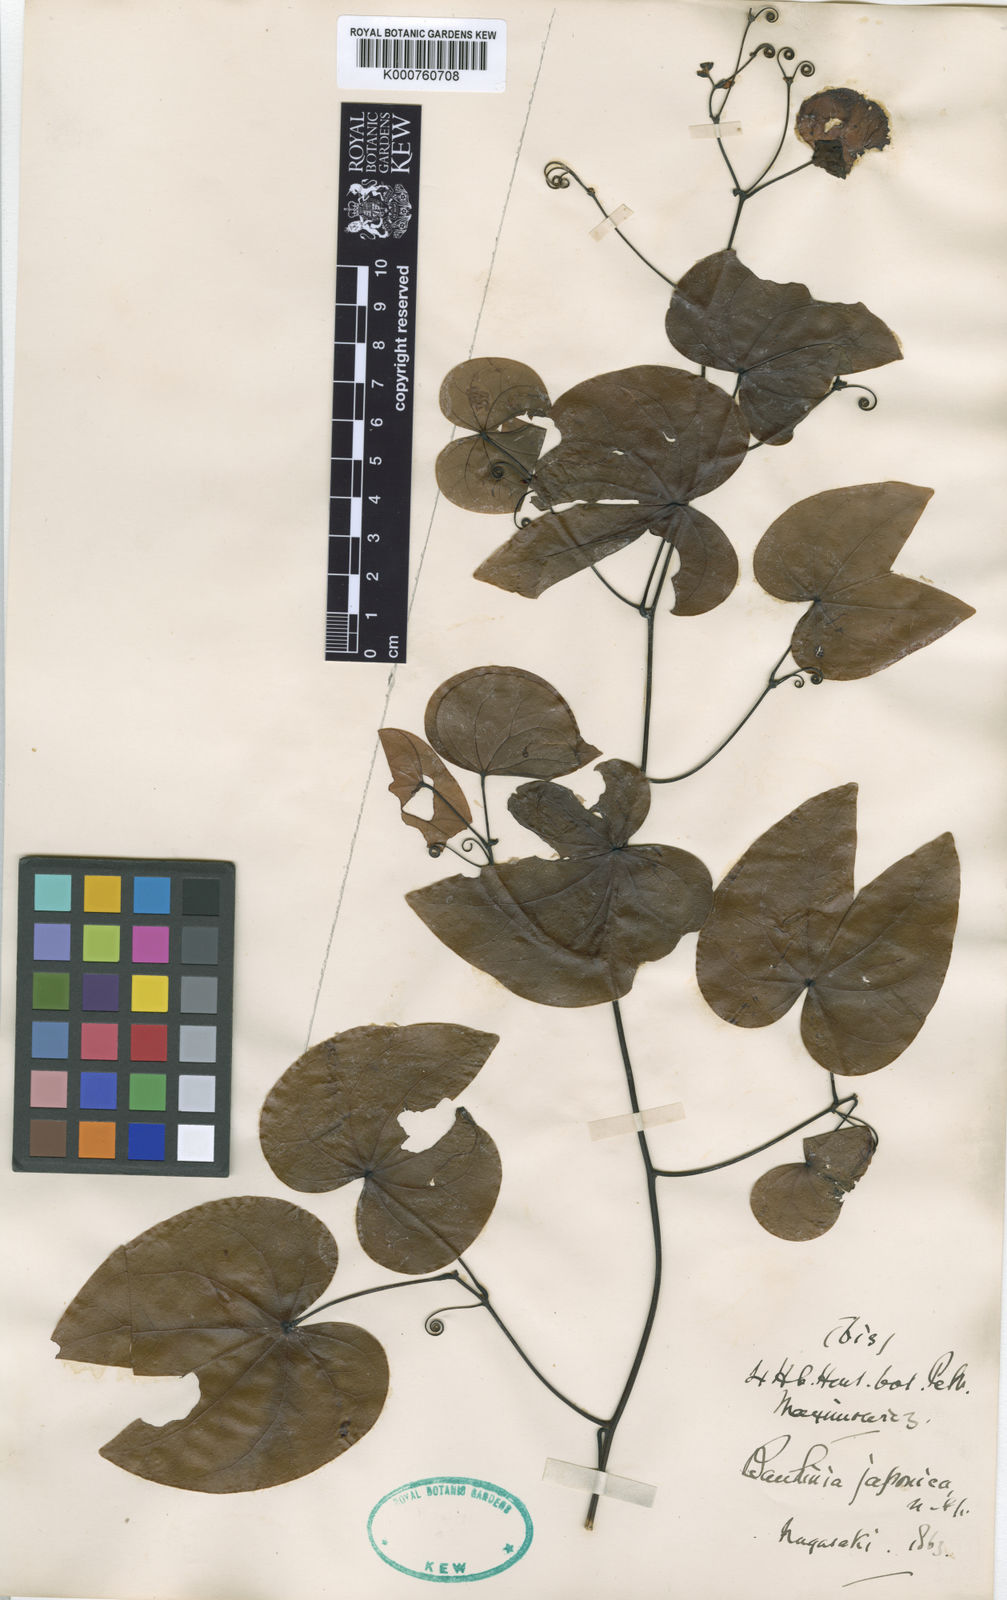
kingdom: Plantae
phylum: Tracheophyta
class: Magnoliopsida
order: Fabales
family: Fabaceae
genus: Phanera
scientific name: Phanera japonica
